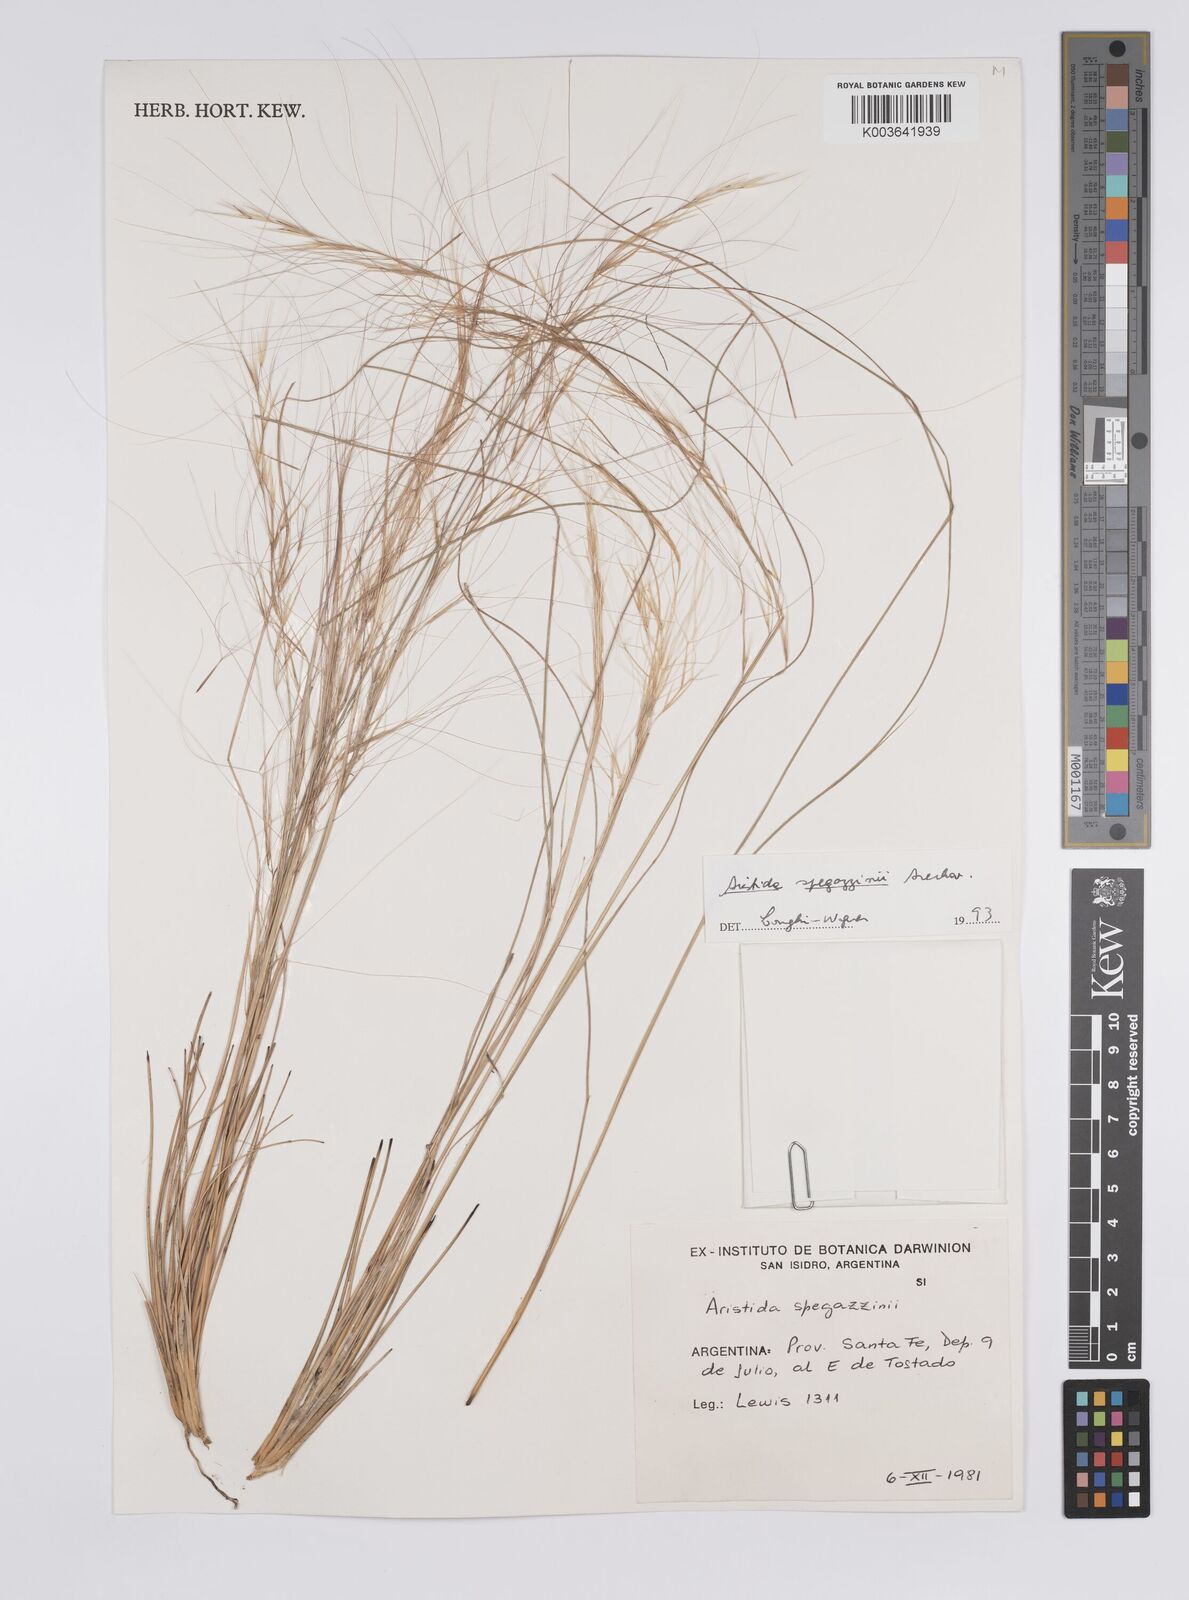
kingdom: Plantae
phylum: Tracheophyta
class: Liliopsida
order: Poales
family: Poaceae
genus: Aristida
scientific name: Aristida spegazzinii
